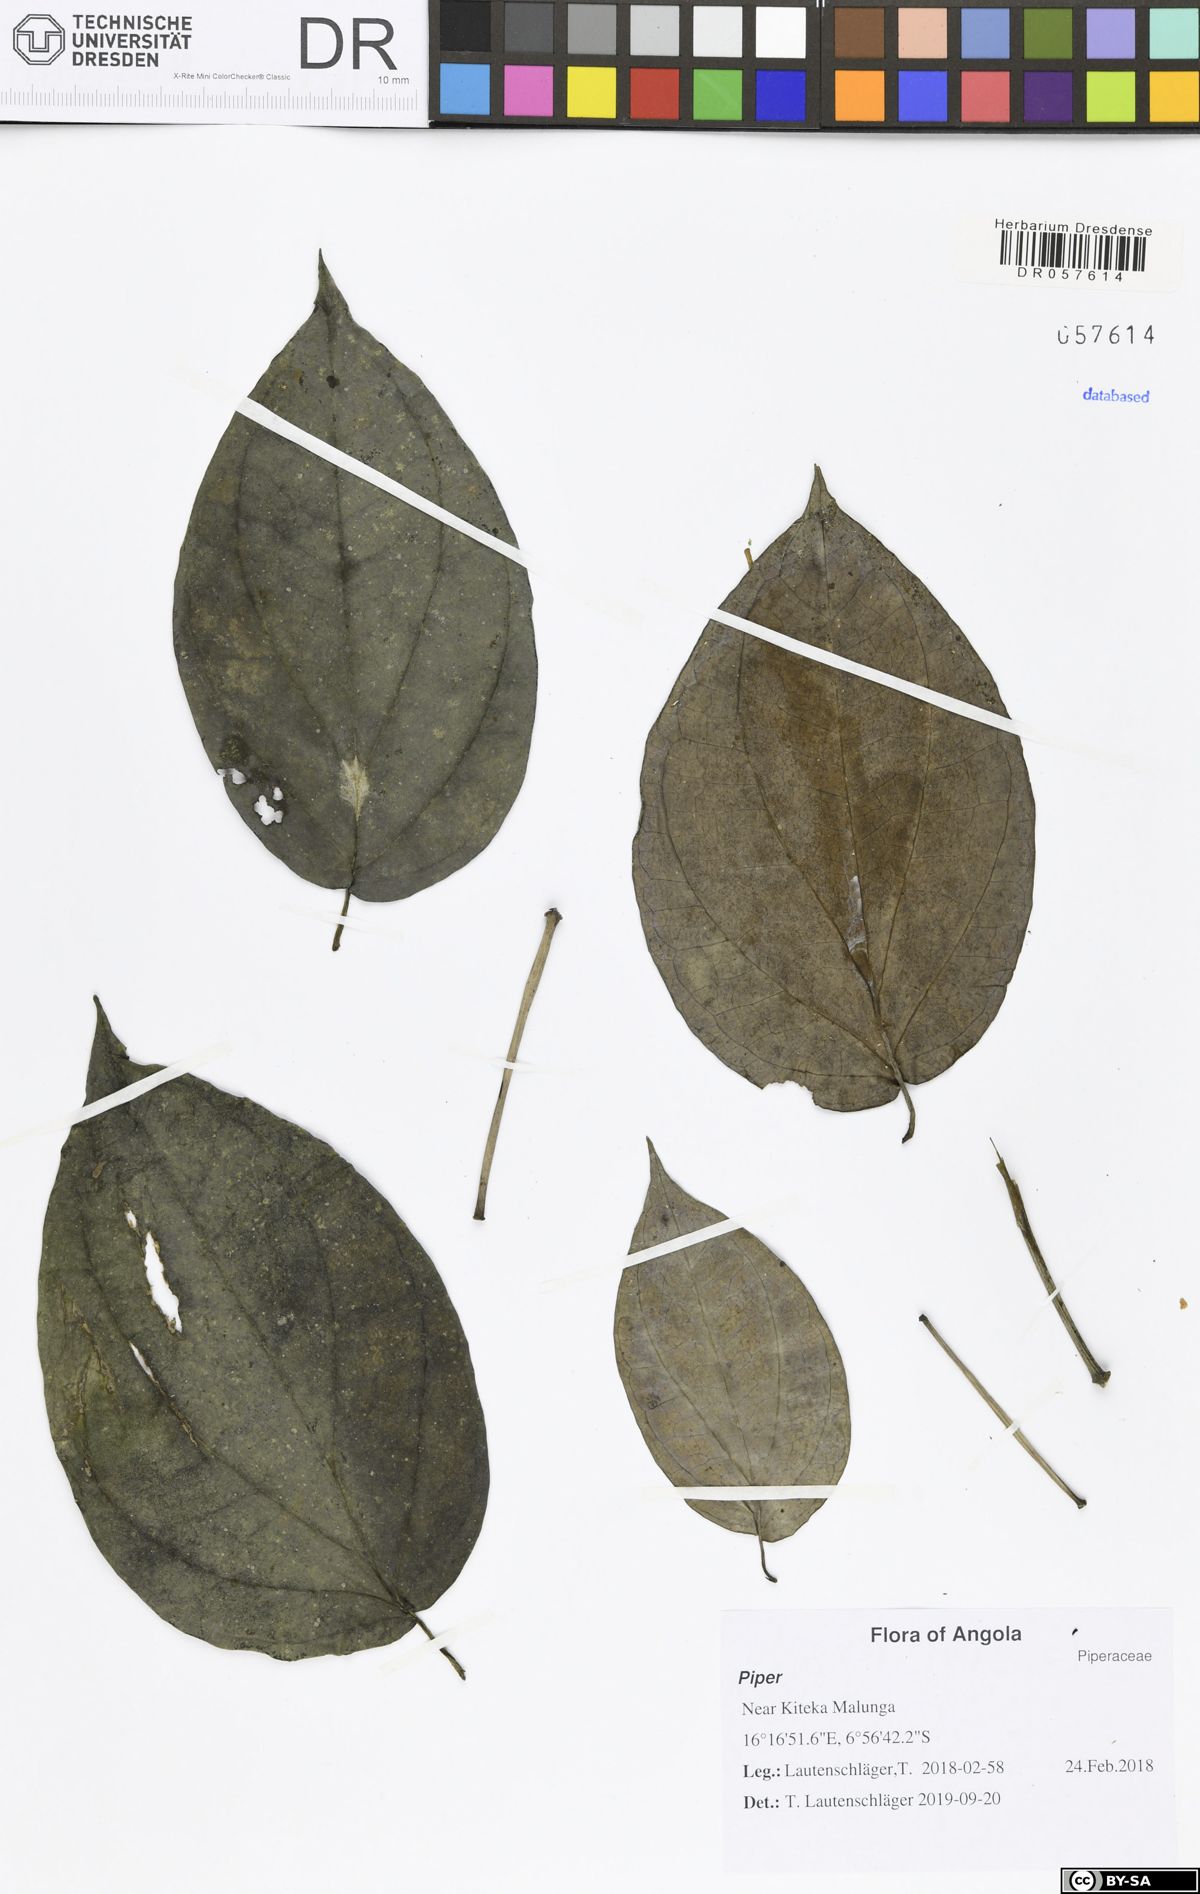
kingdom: Plantae
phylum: Tracheophyta
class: Magnoliopsida
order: Piperales
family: Piperaceae
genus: Piper
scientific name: Piper
